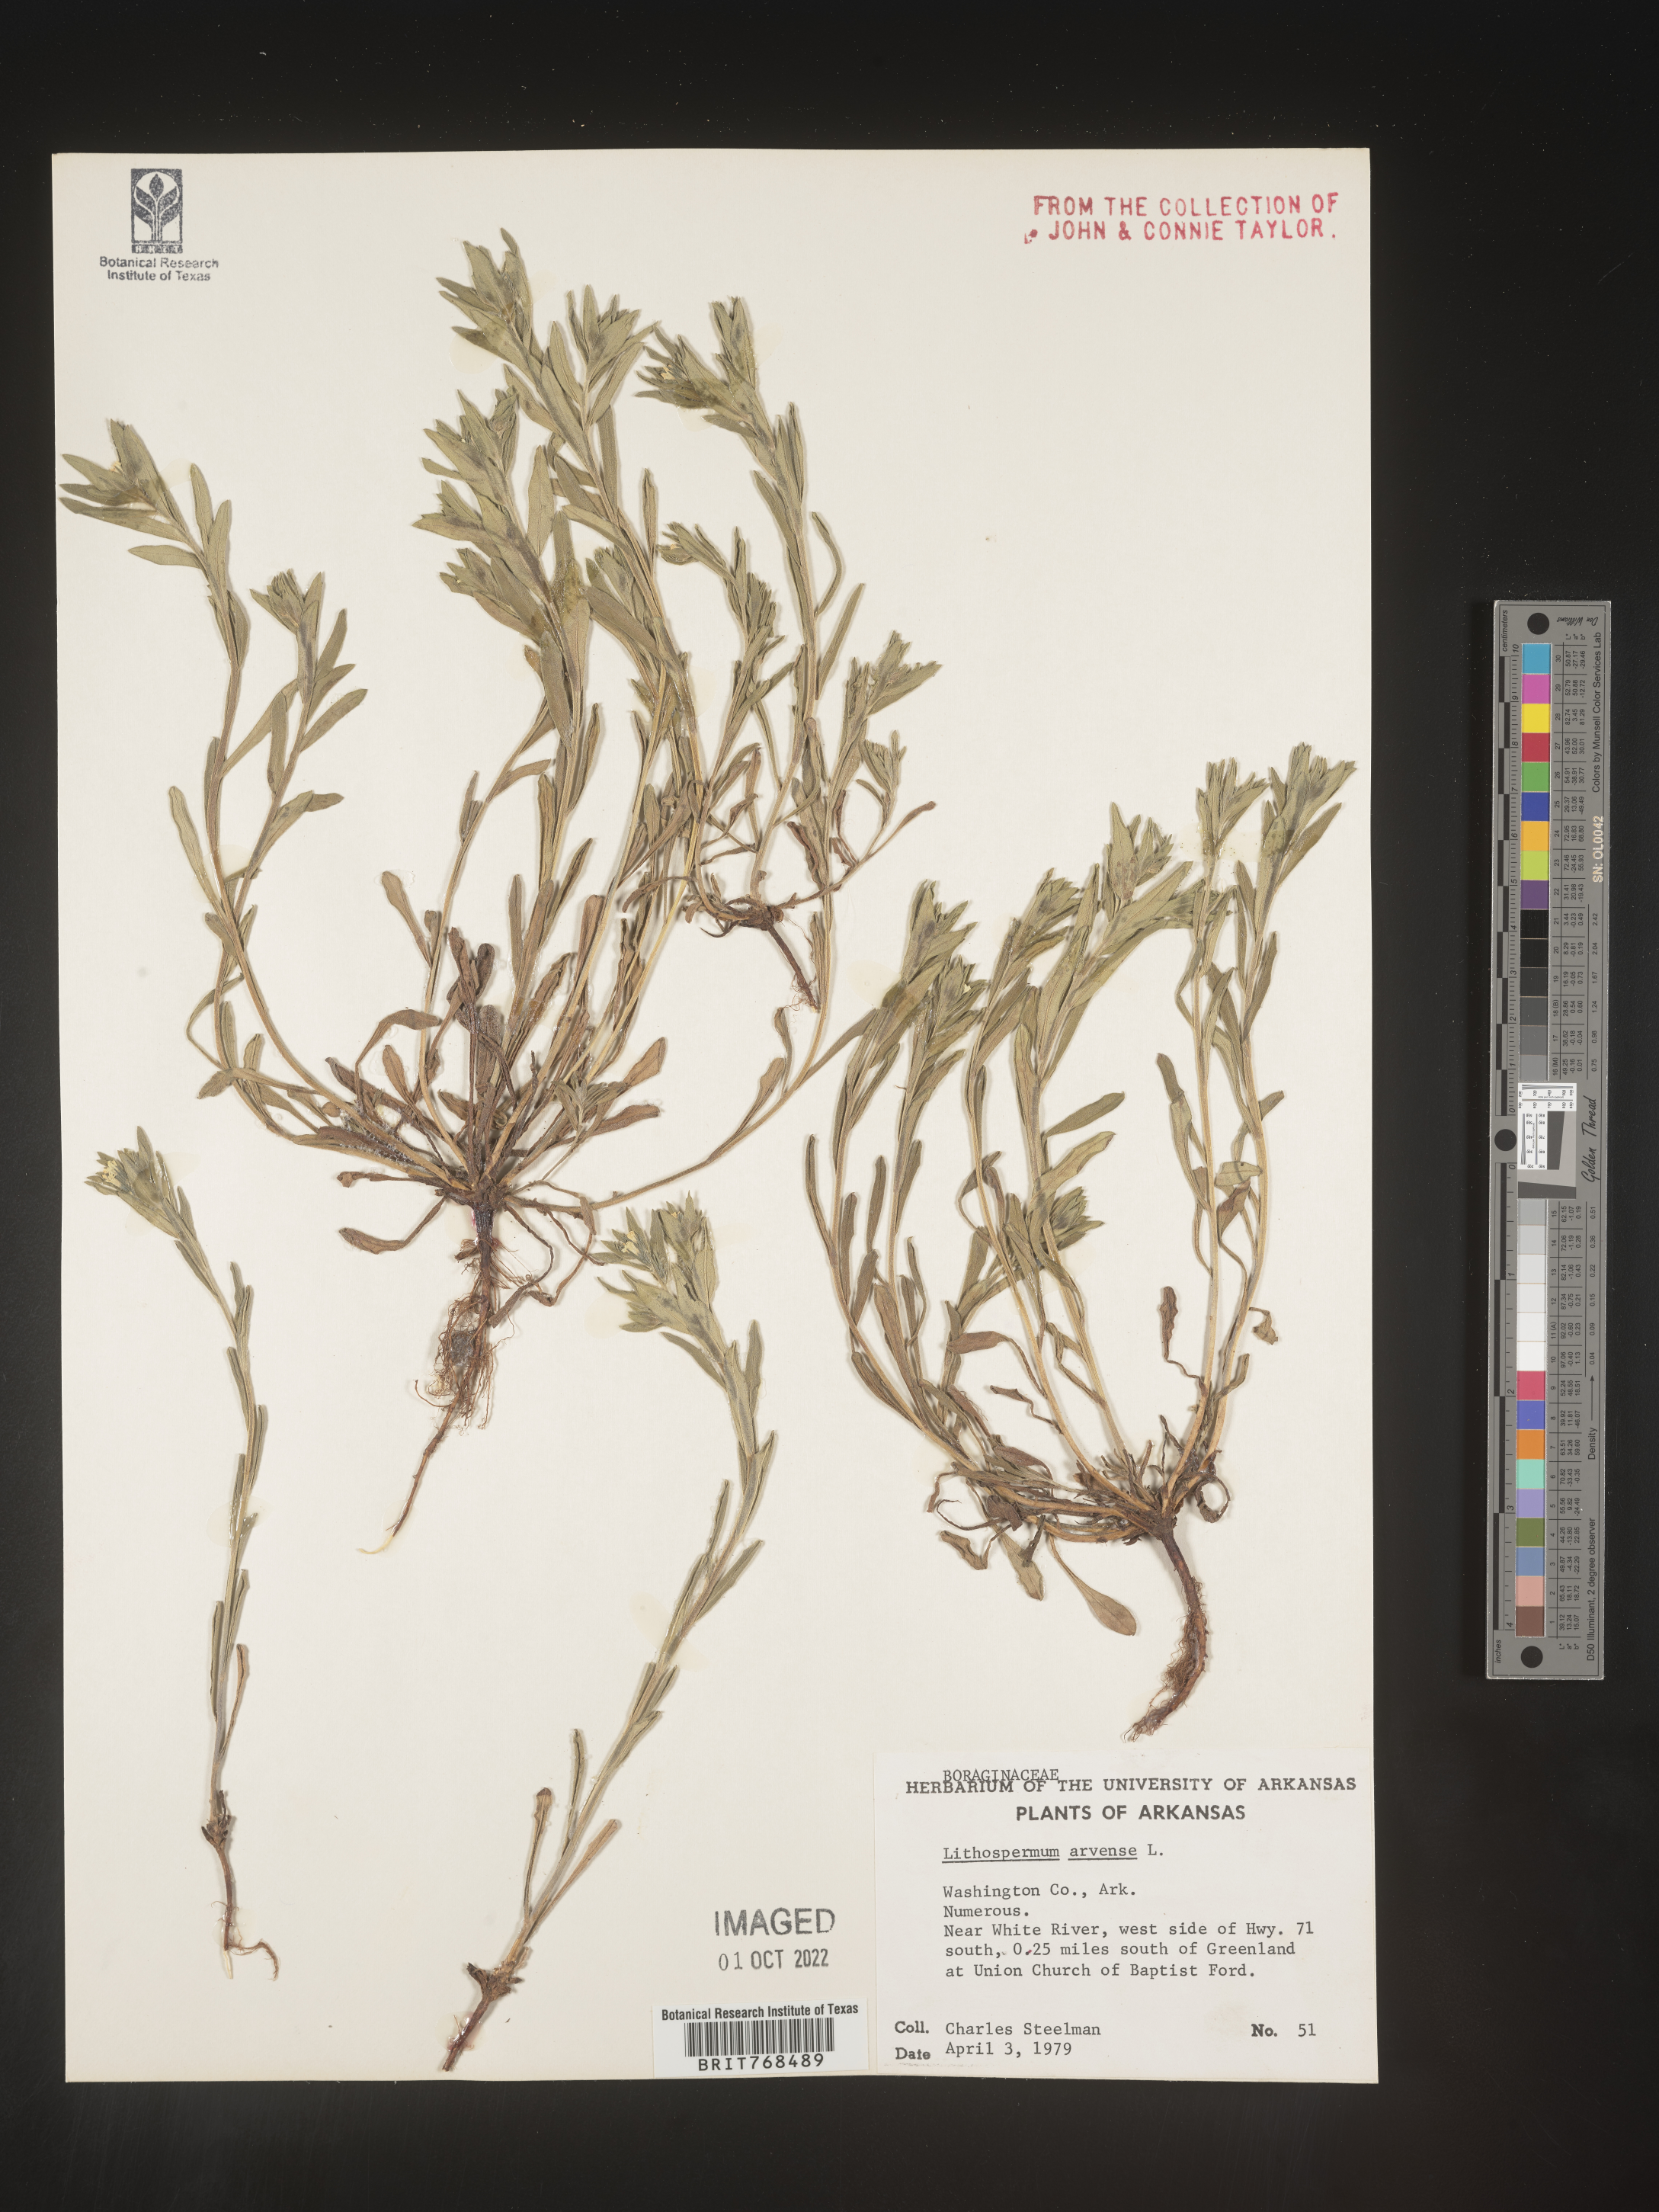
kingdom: Plantae
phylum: Tracheophyta
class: Magnoliopsida
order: Boraginales
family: Boraginaceae
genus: Lithospermum
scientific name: Lithospermum
